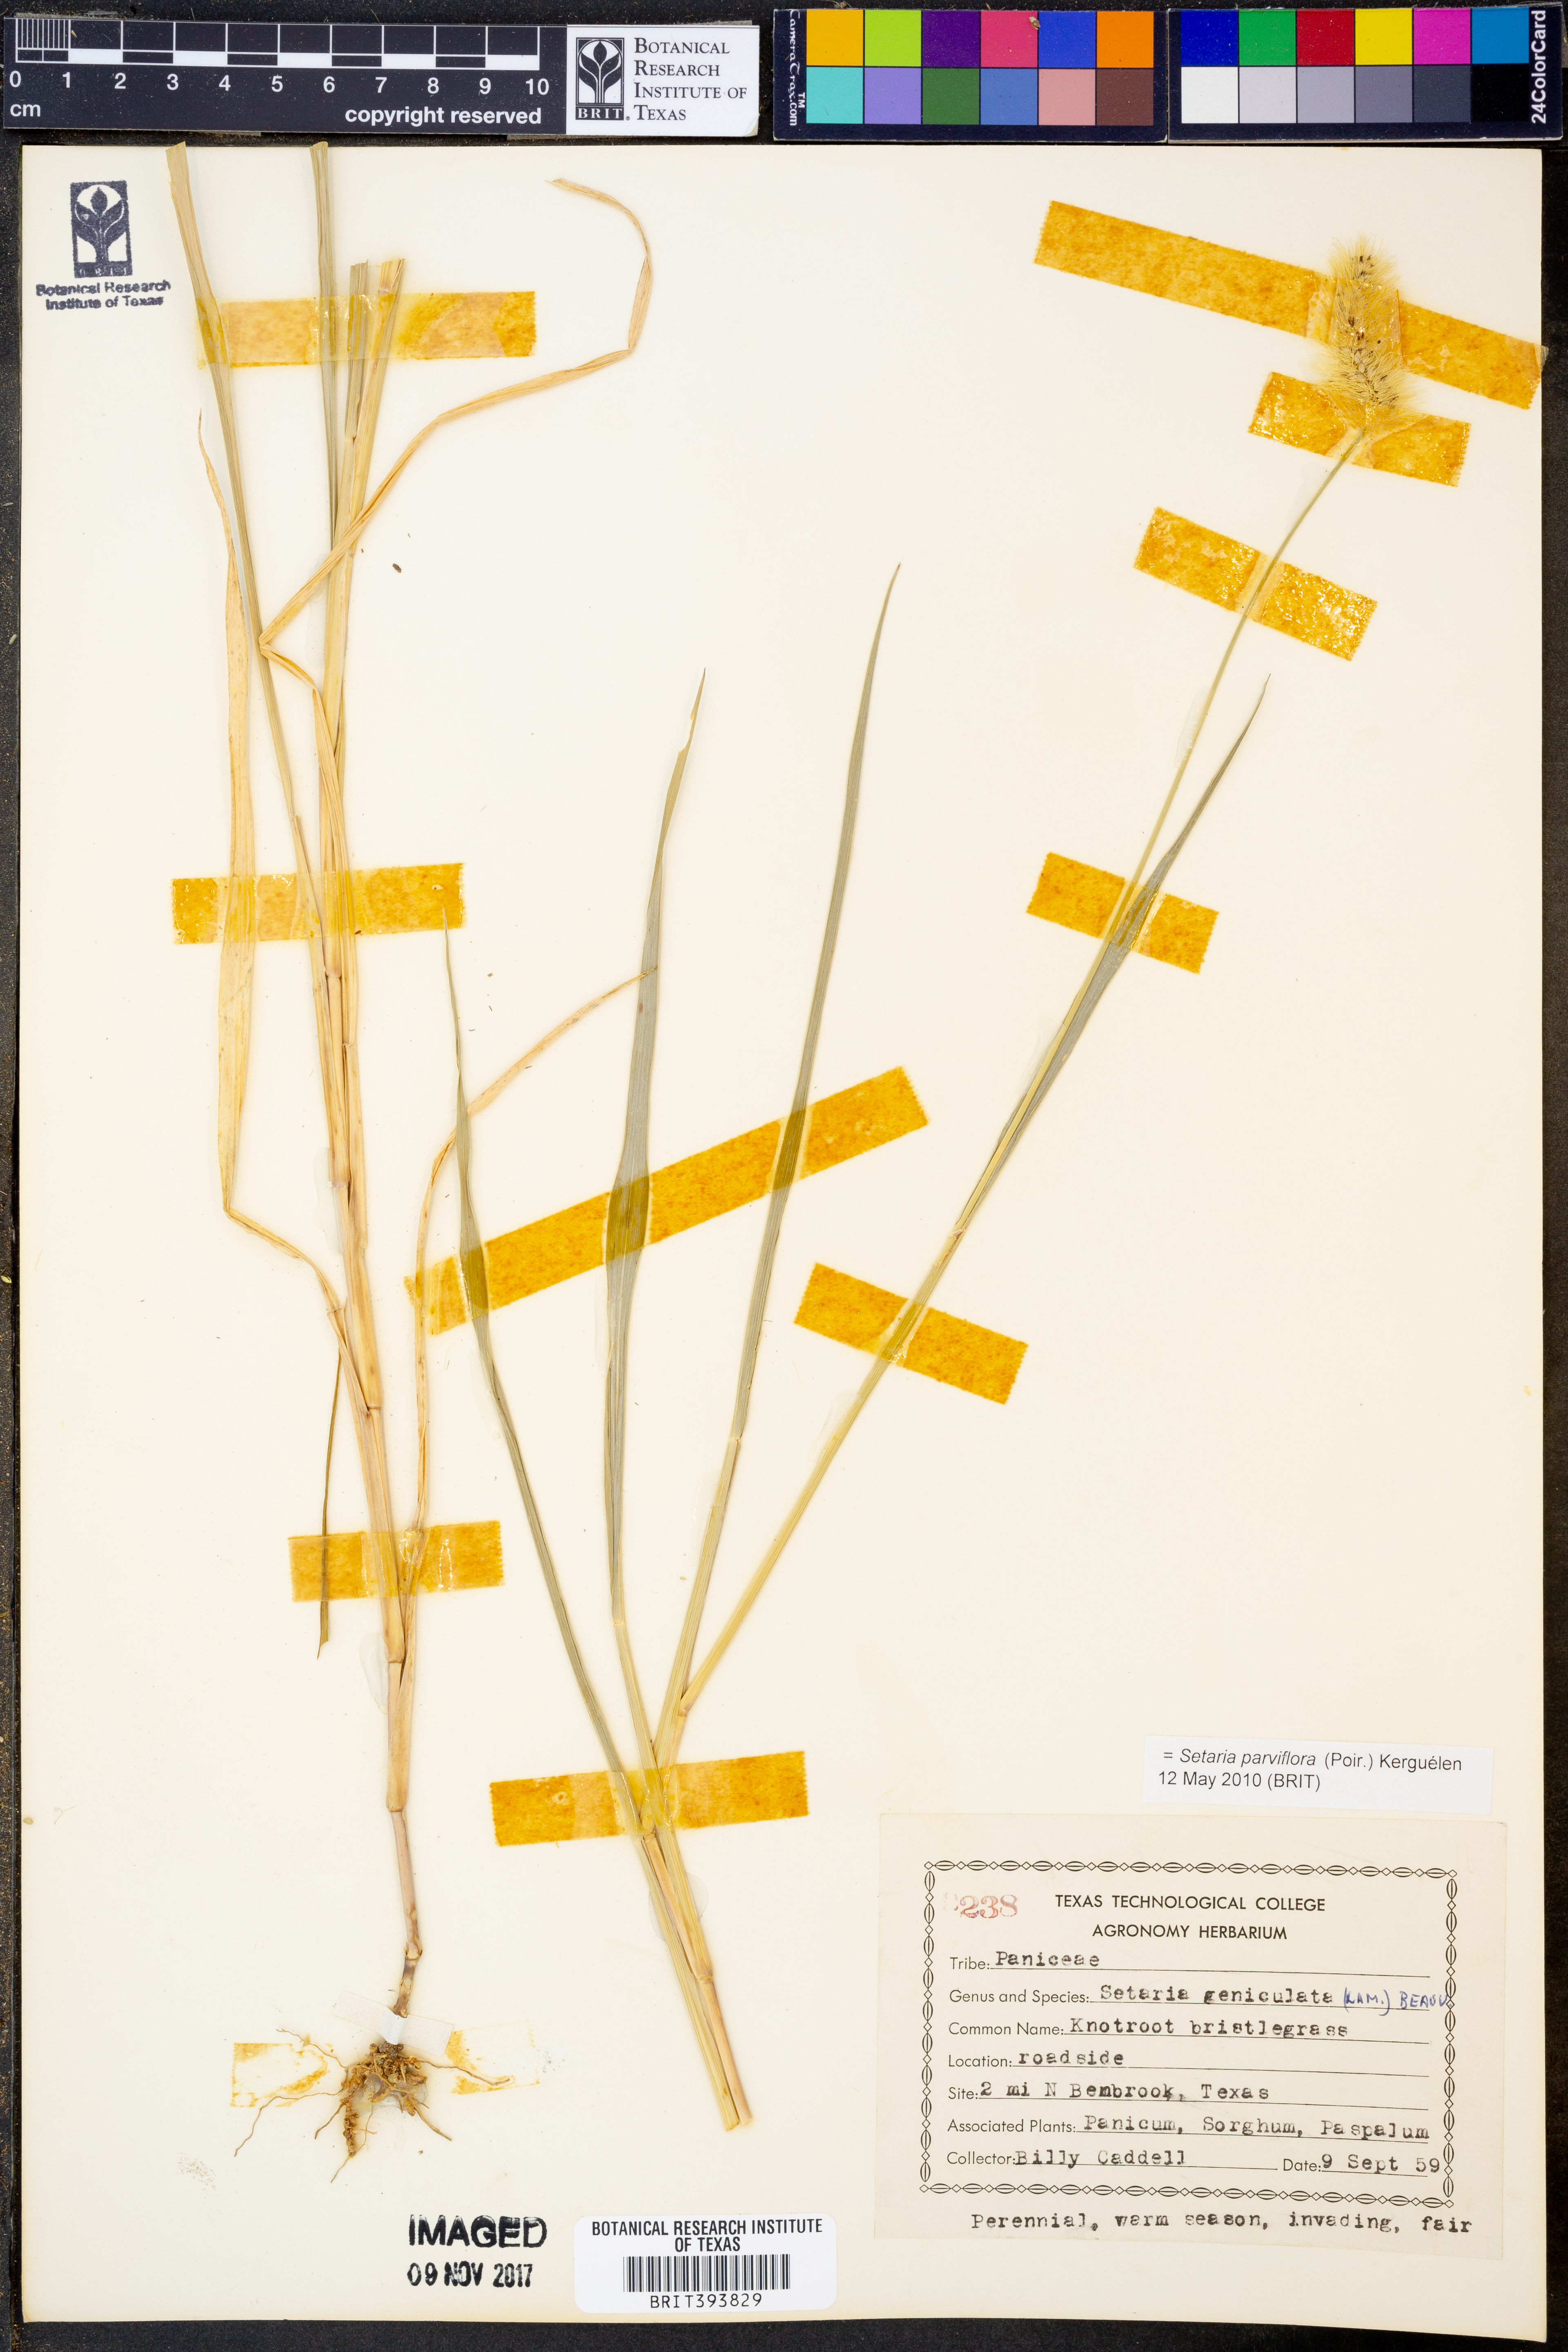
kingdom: Plantae
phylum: Tracheophyta
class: Liliopsida
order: Poales
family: Poaceae
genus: Setaria
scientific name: Setaria parviflora
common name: Knotroot bristle-grass
